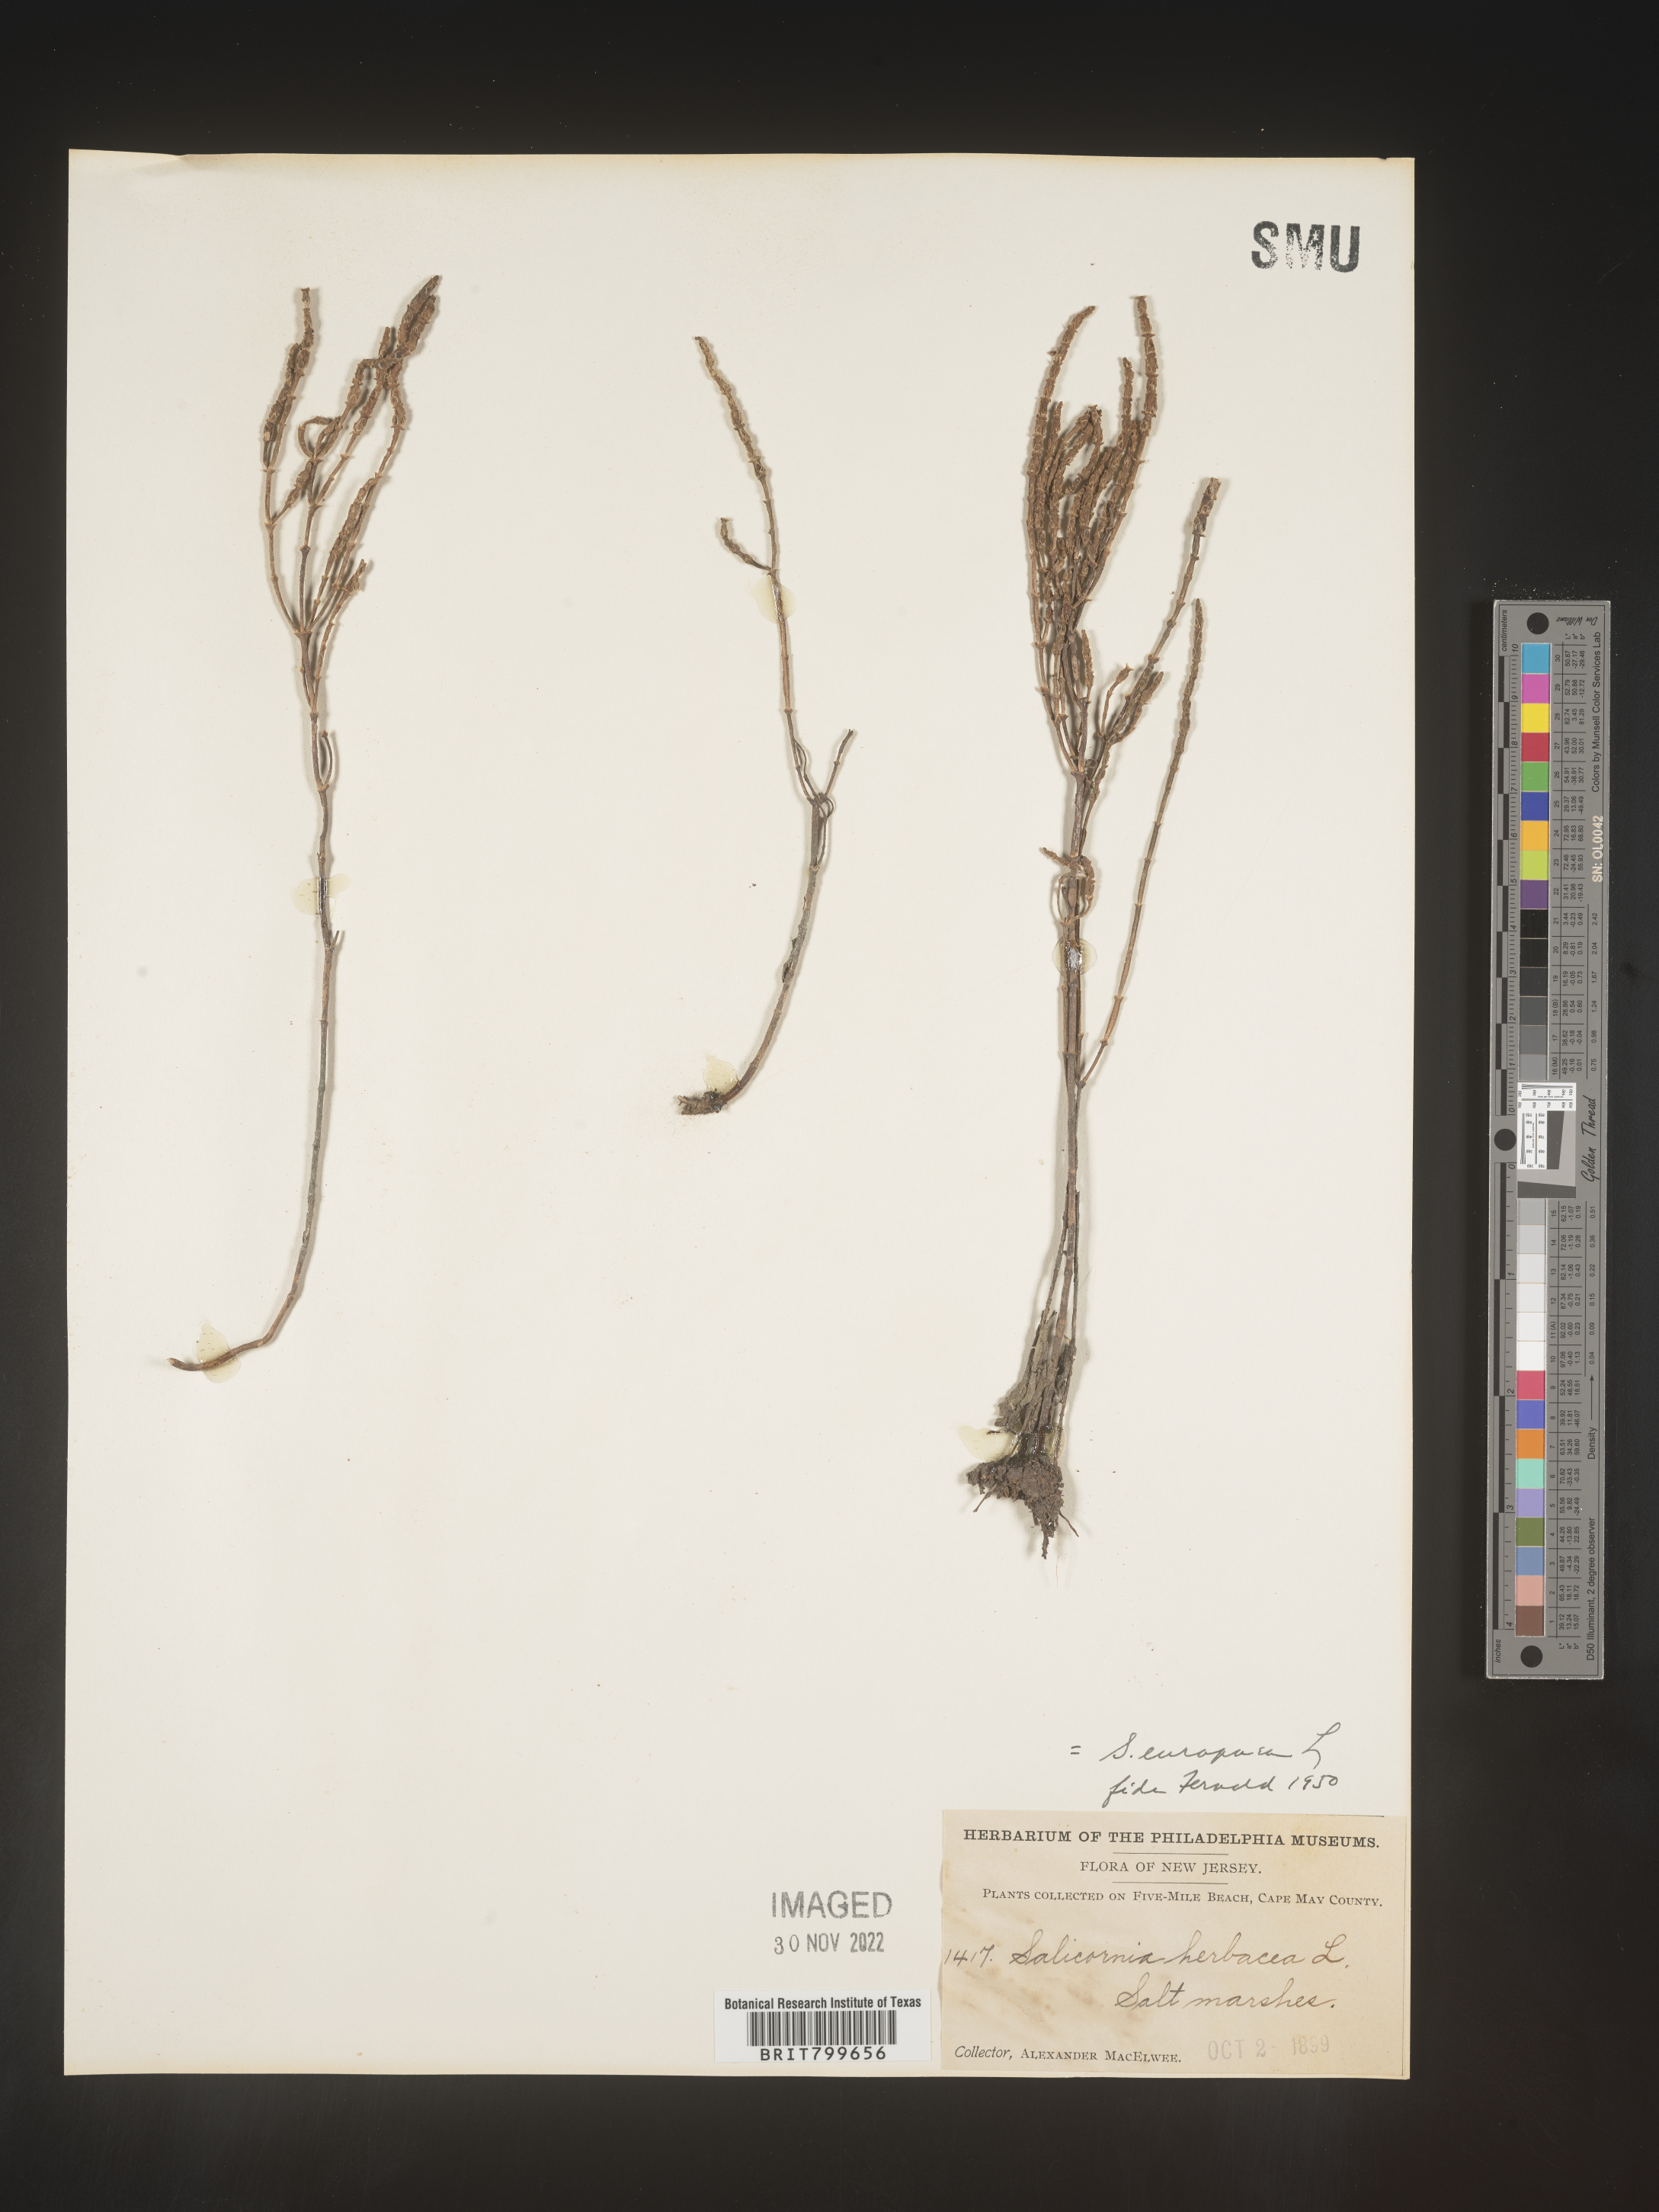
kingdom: Plantae
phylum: Tracheophyta
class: Magnoliopsida
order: Caryophyllales
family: Amaranthaceae
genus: Salicornia
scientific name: Salicornia europaea
